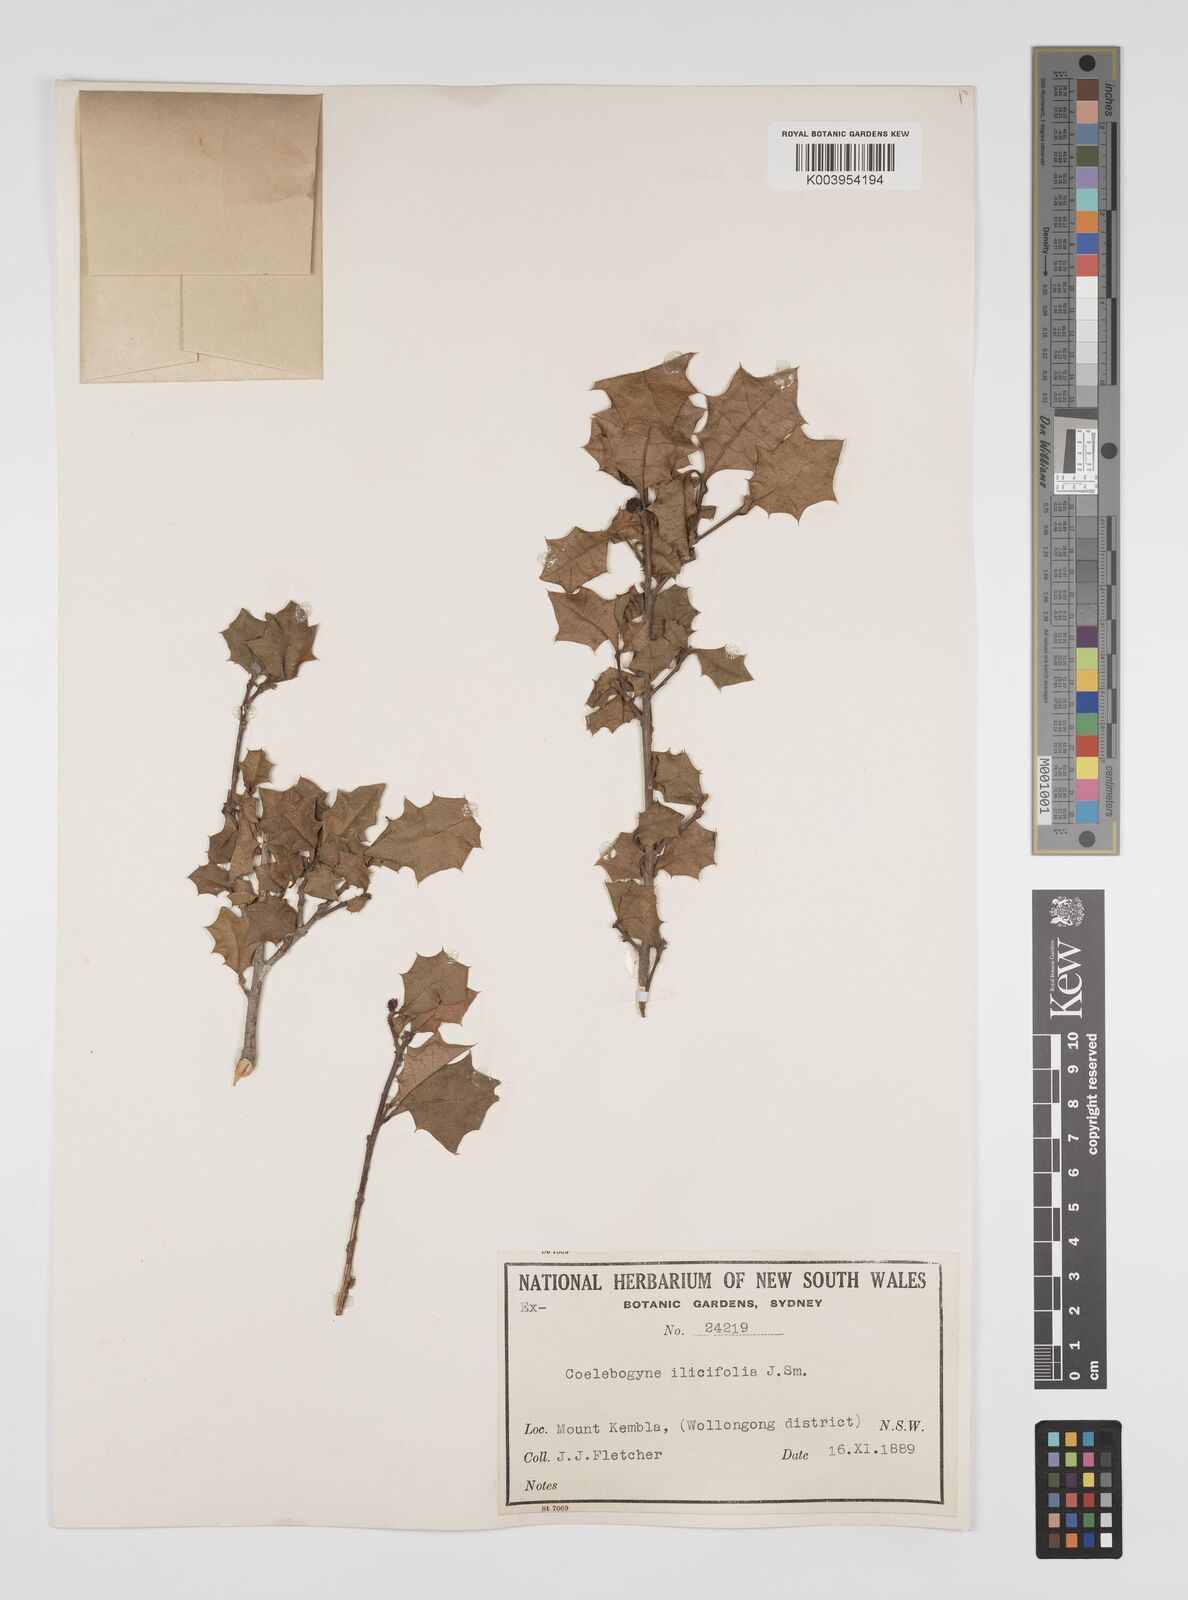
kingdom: Plantae
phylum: Tracheophyta
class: Magnoliopsida
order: Malpighiales
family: Euphorbiaceae
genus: Alchornea
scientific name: Alchornea ilicifolia
